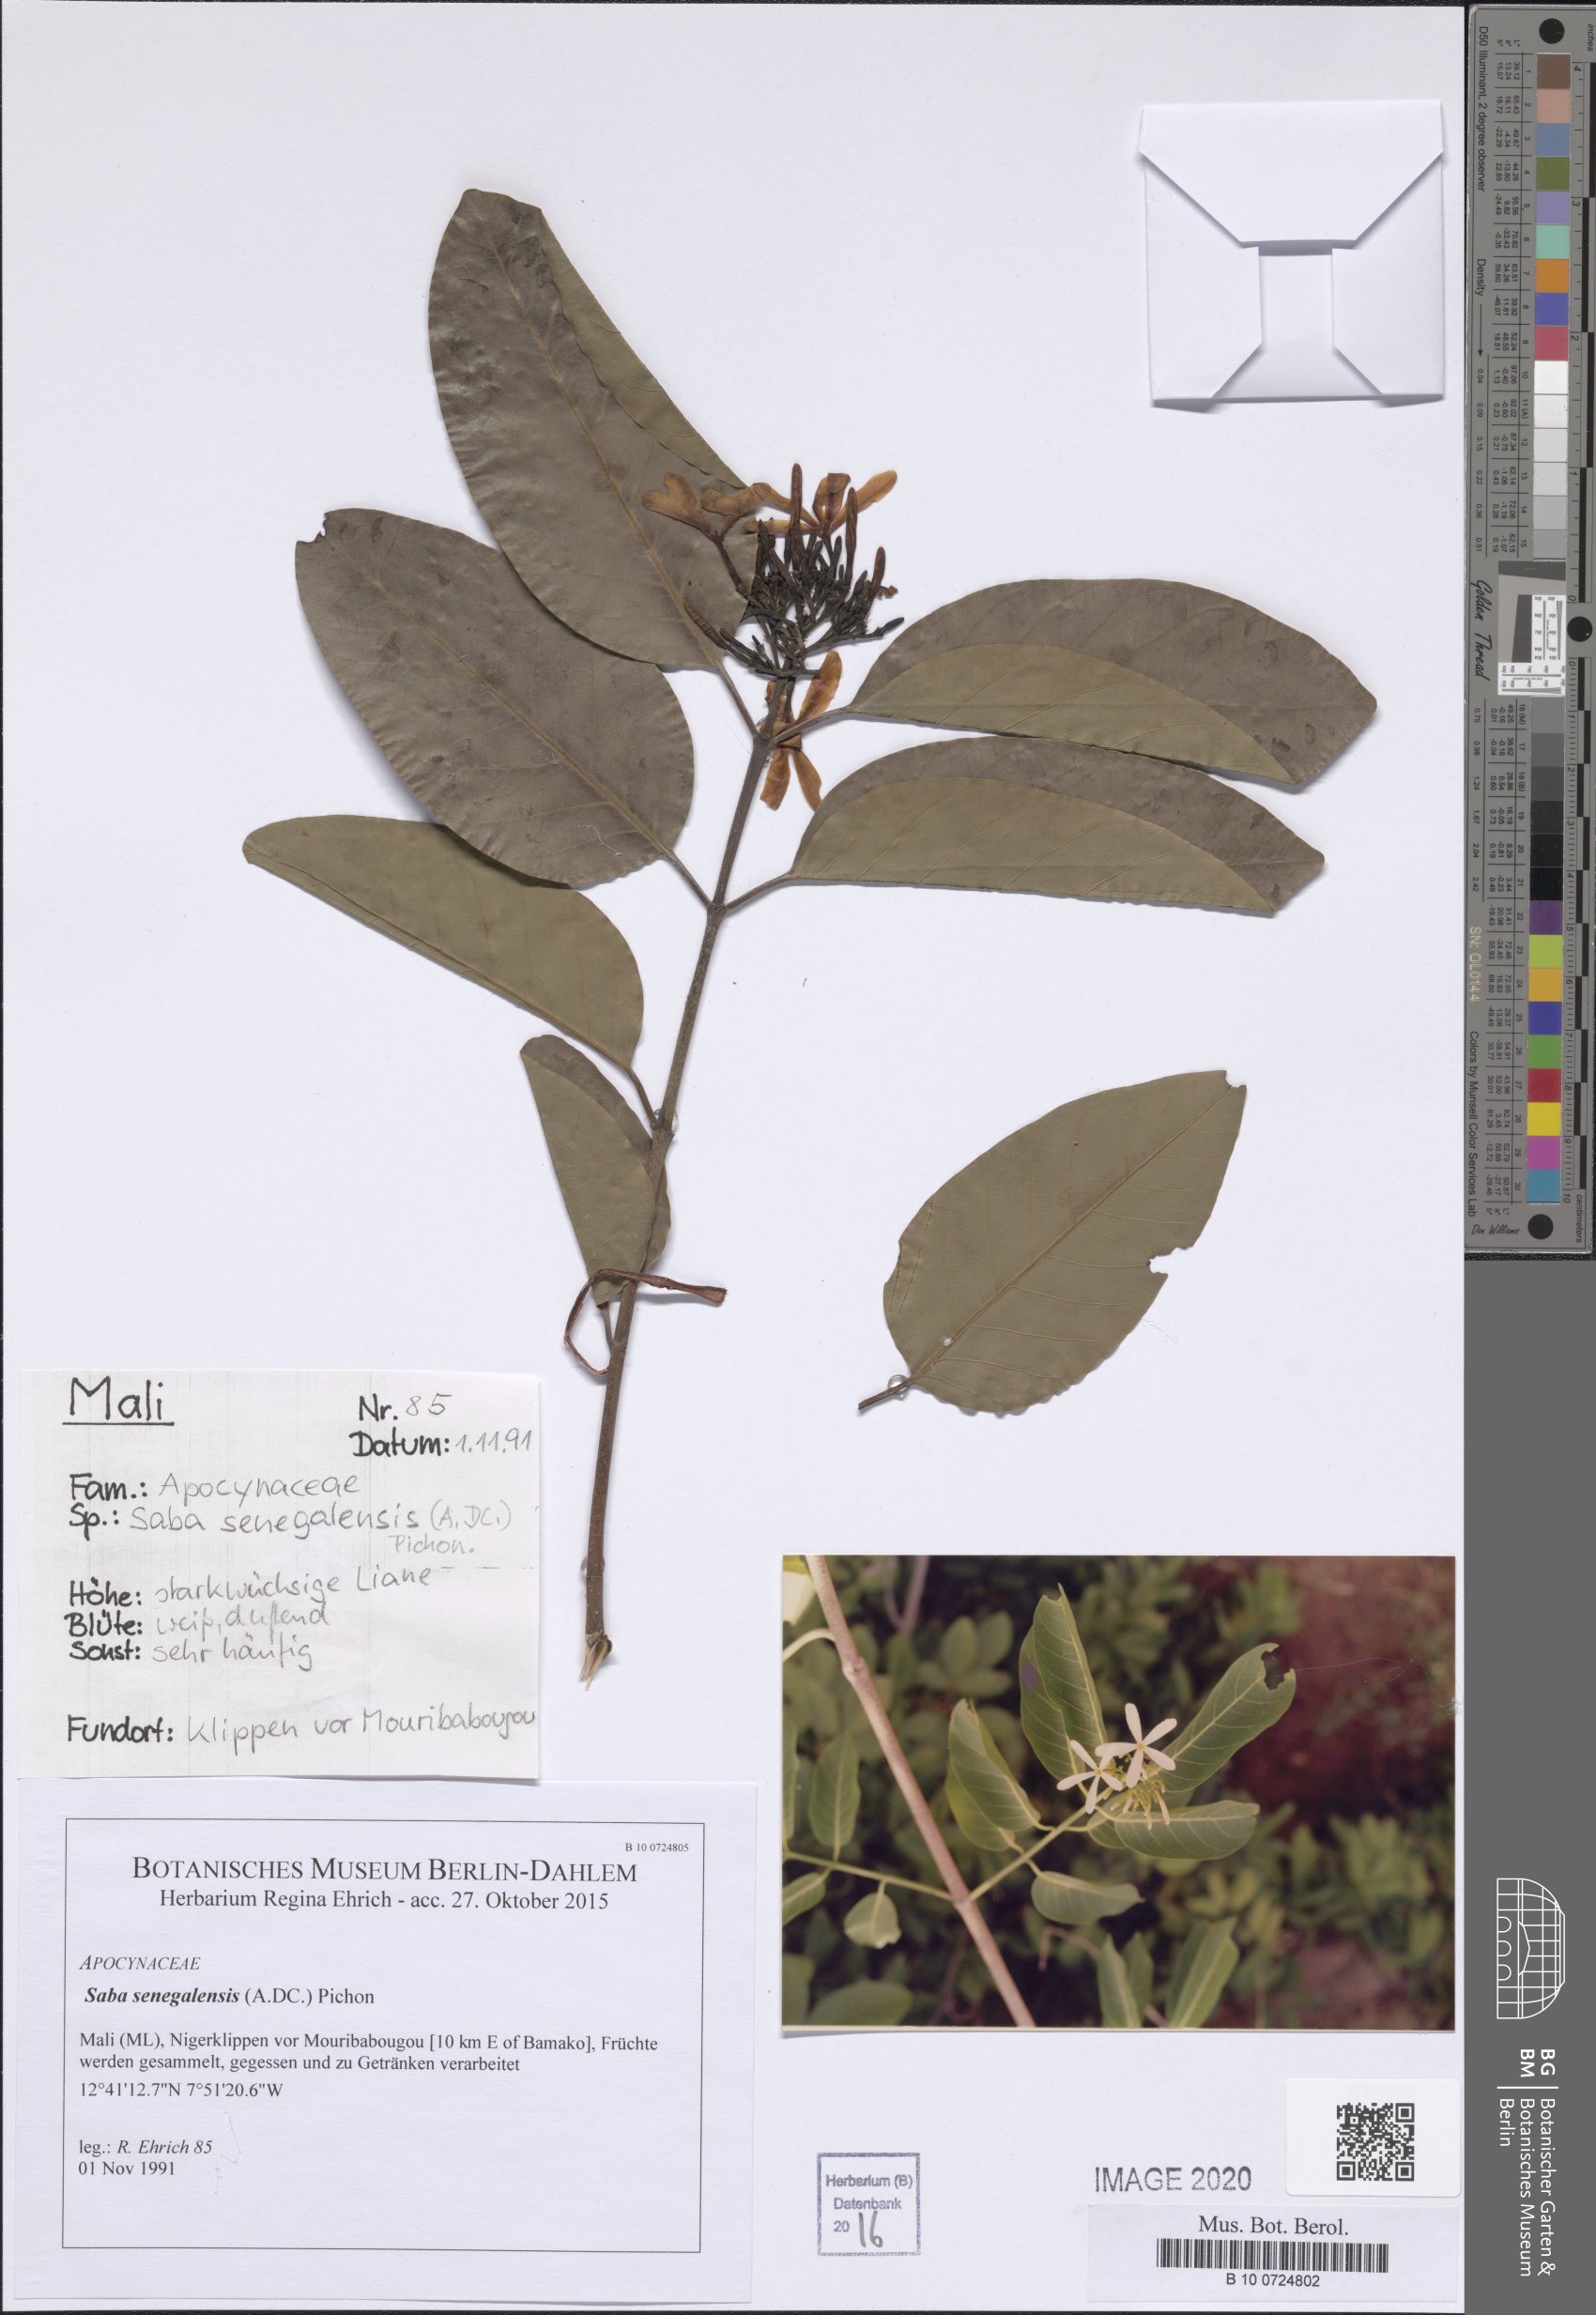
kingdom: Plantae
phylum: Tracheophyta
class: Magnoliopsida
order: Malvales
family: Cochlospermaceae
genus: Cochlospermum
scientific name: Cochlospermum tinctorium
